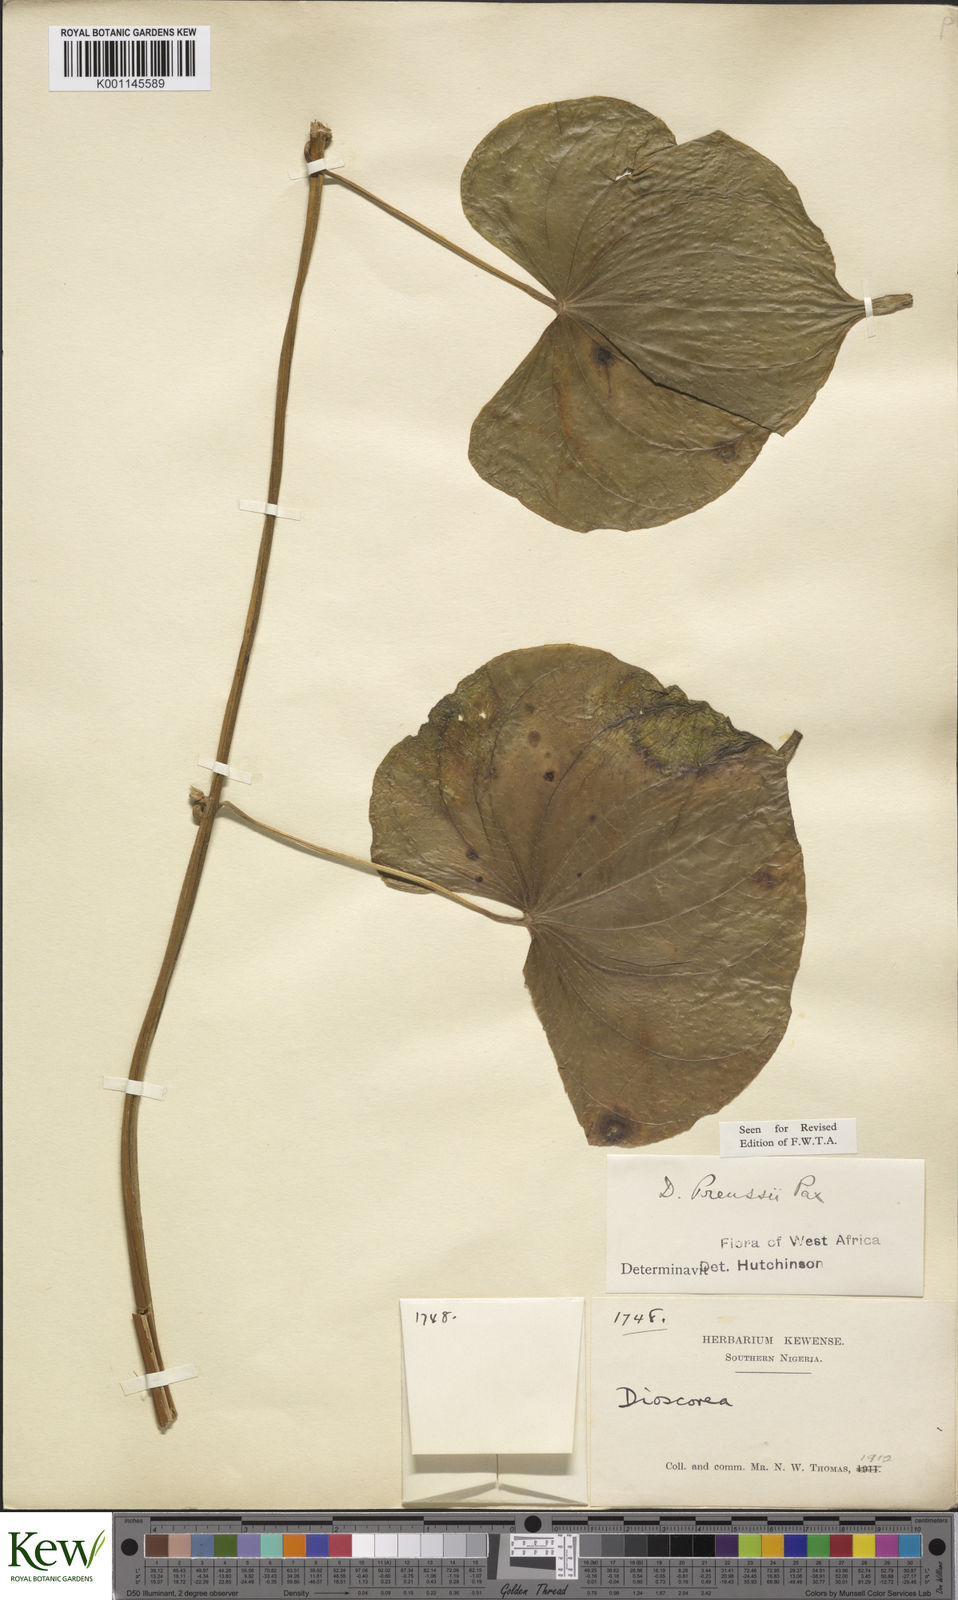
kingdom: Plantae
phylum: Tracheophyta
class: Liliopsida
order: Dioscoreales
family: Dioscoreaceae
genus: Dioscorea
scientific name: Dioscorea preussii
